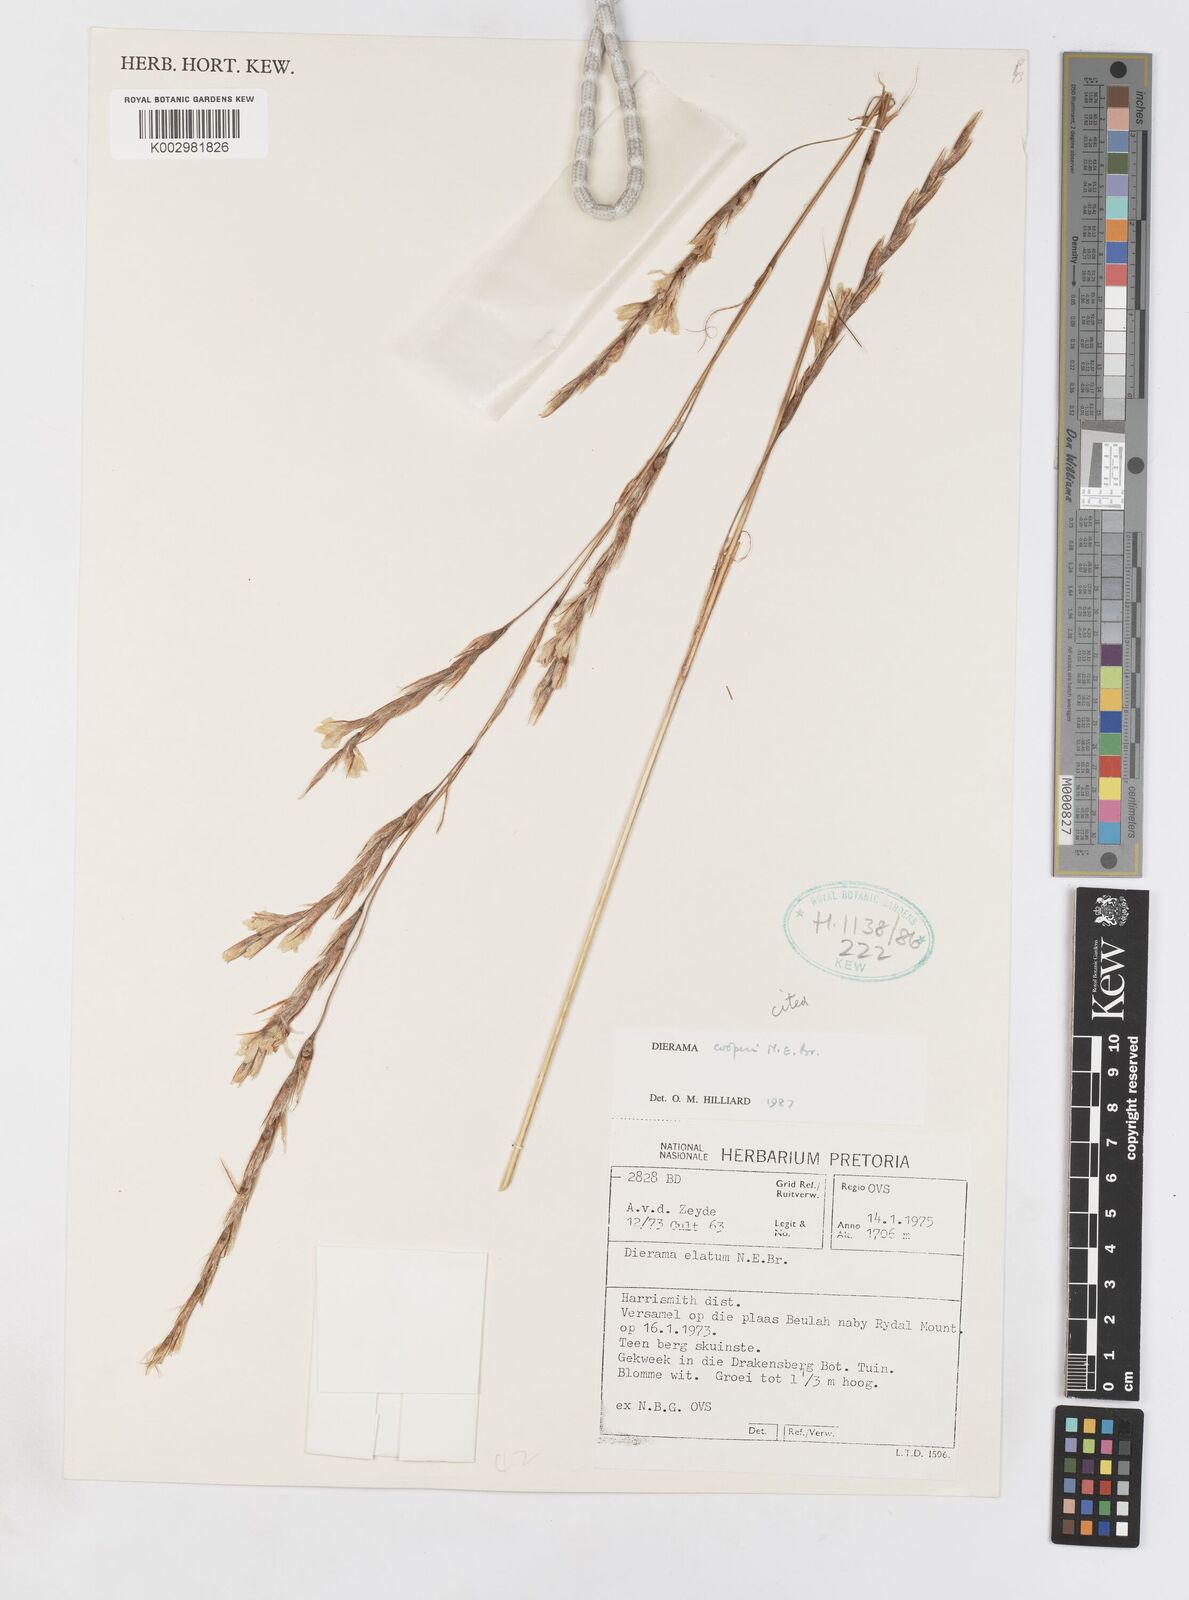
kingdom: Plantae
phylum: Tracheophyta
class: Liliopsida
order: Asparagales
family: Iridaceae
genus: Dierama
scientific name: Dierama cooperi
